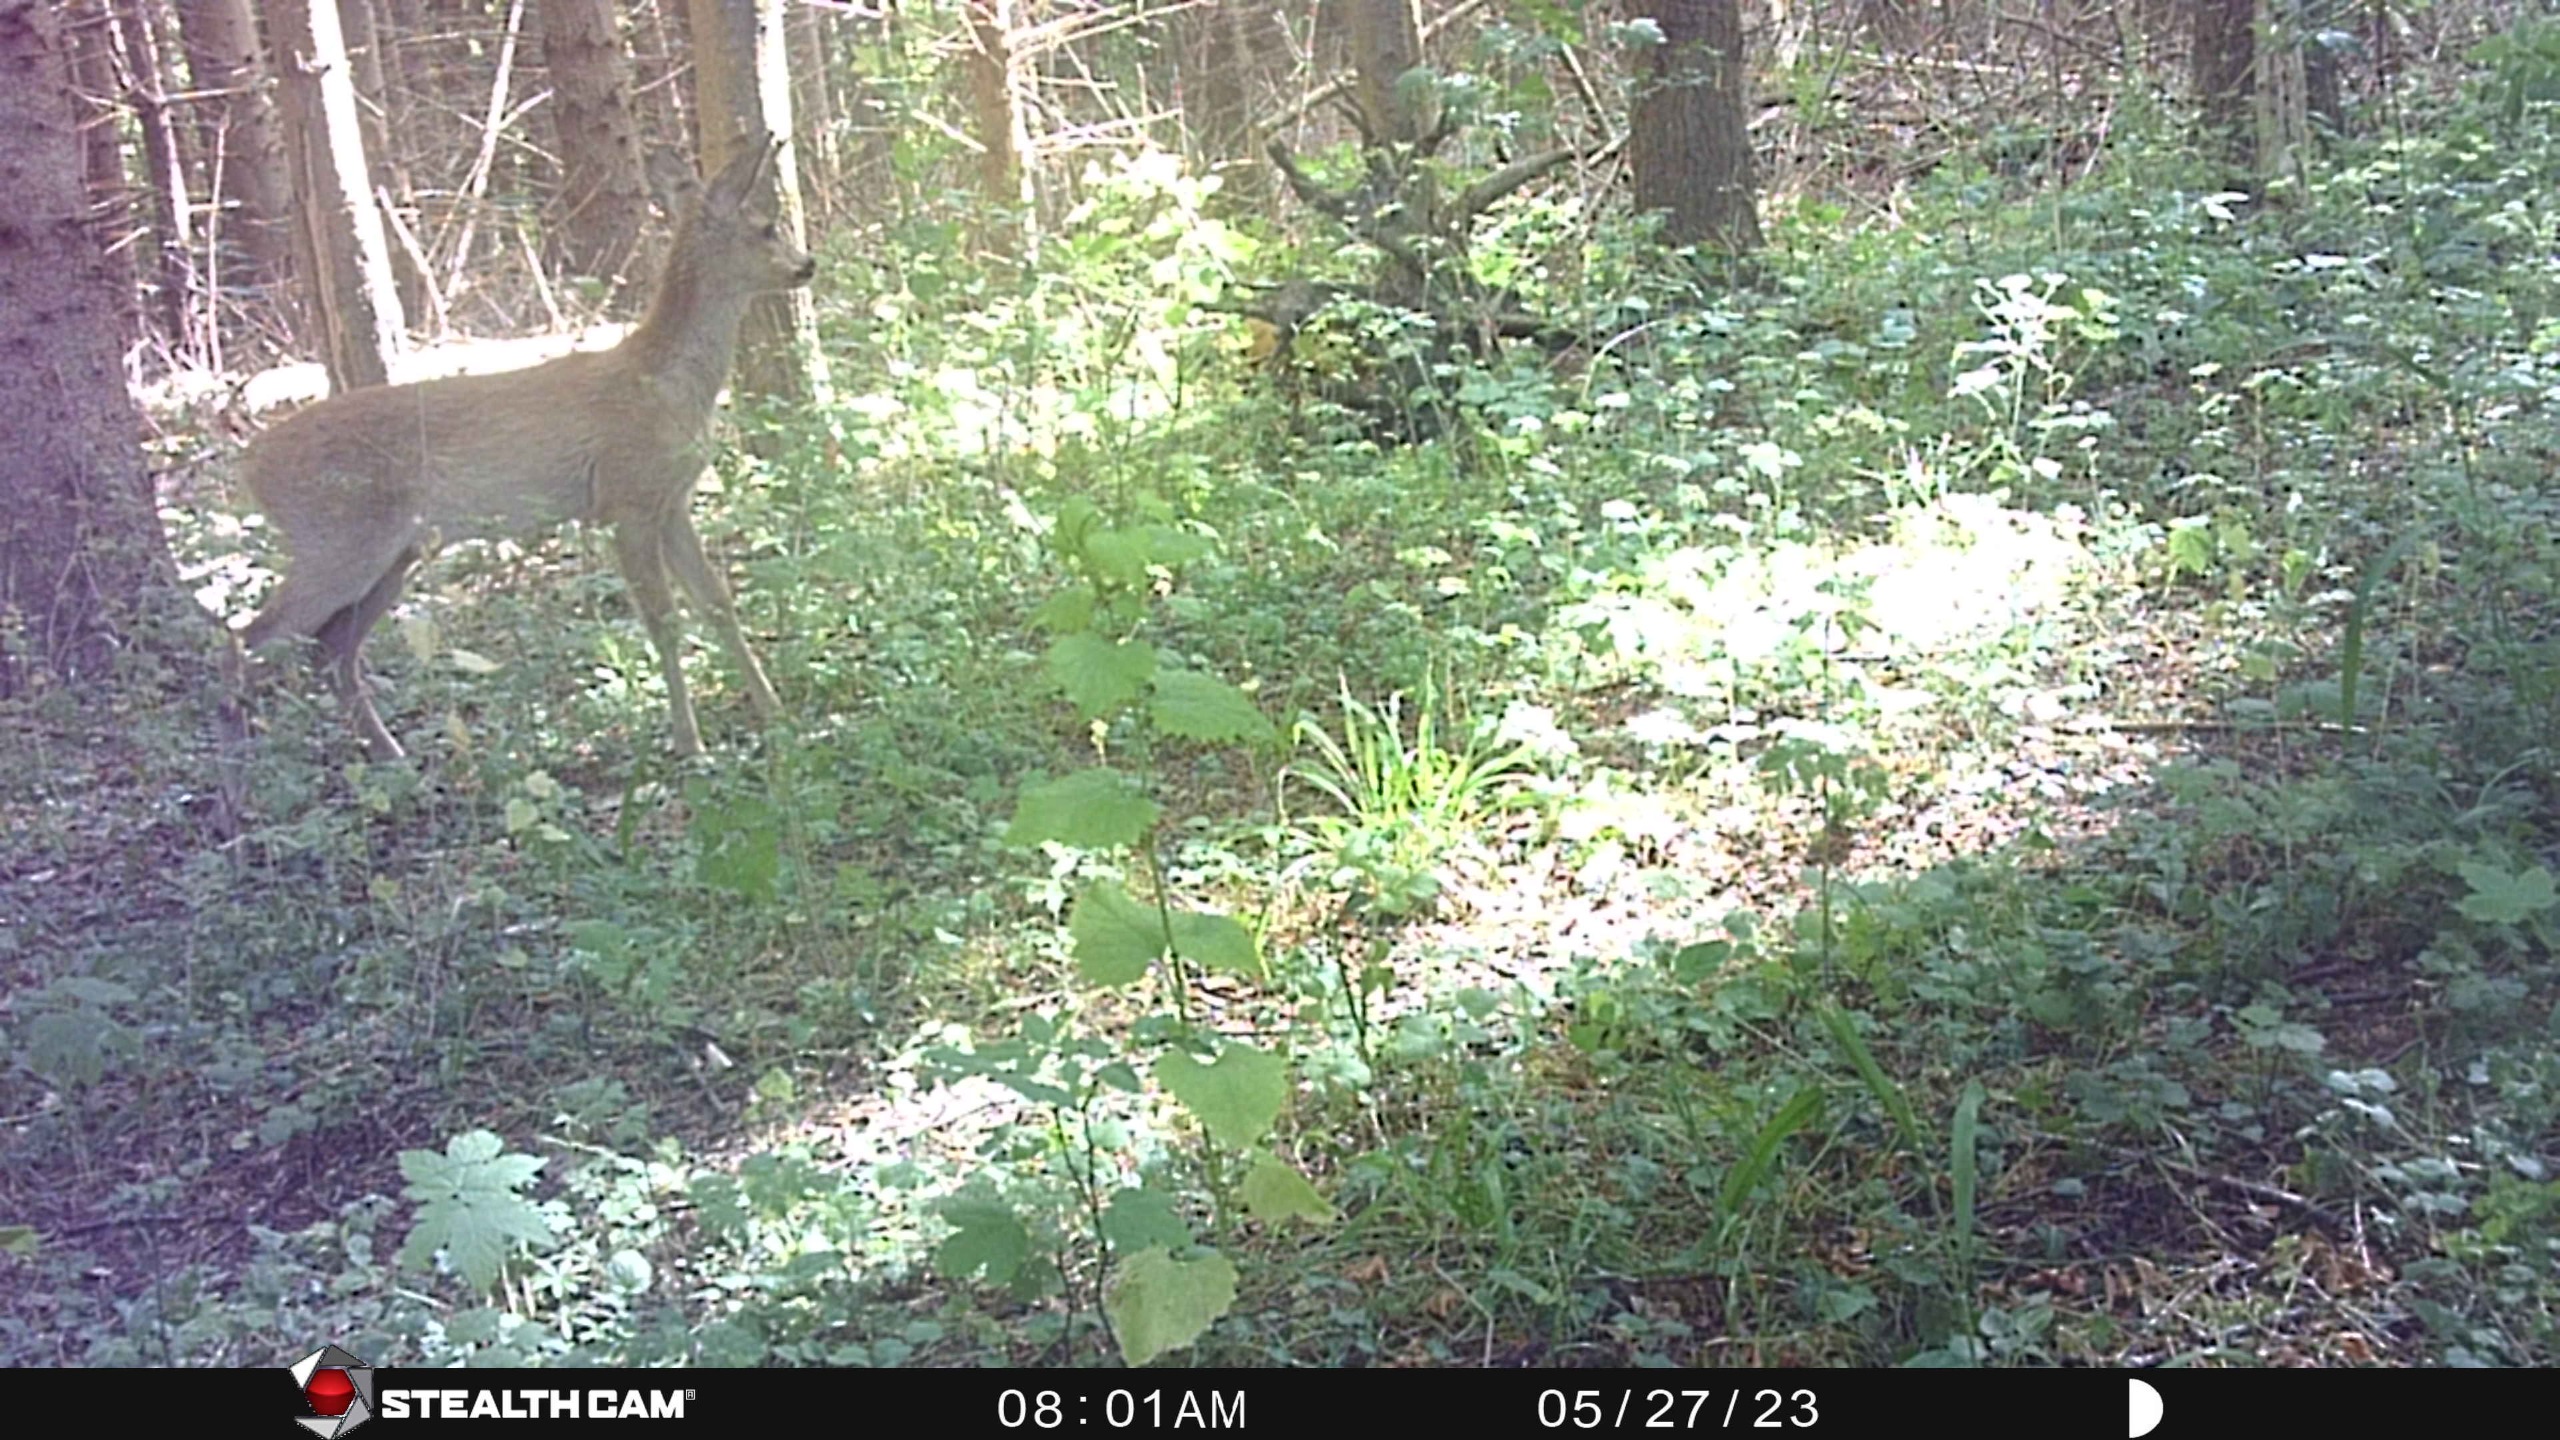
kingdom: Animalia
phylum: Chordata
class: Mammalia
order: Artiodactyla
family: Cervidae
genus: Capreolus
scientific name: Capreolus capreolus
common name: Rådyr
